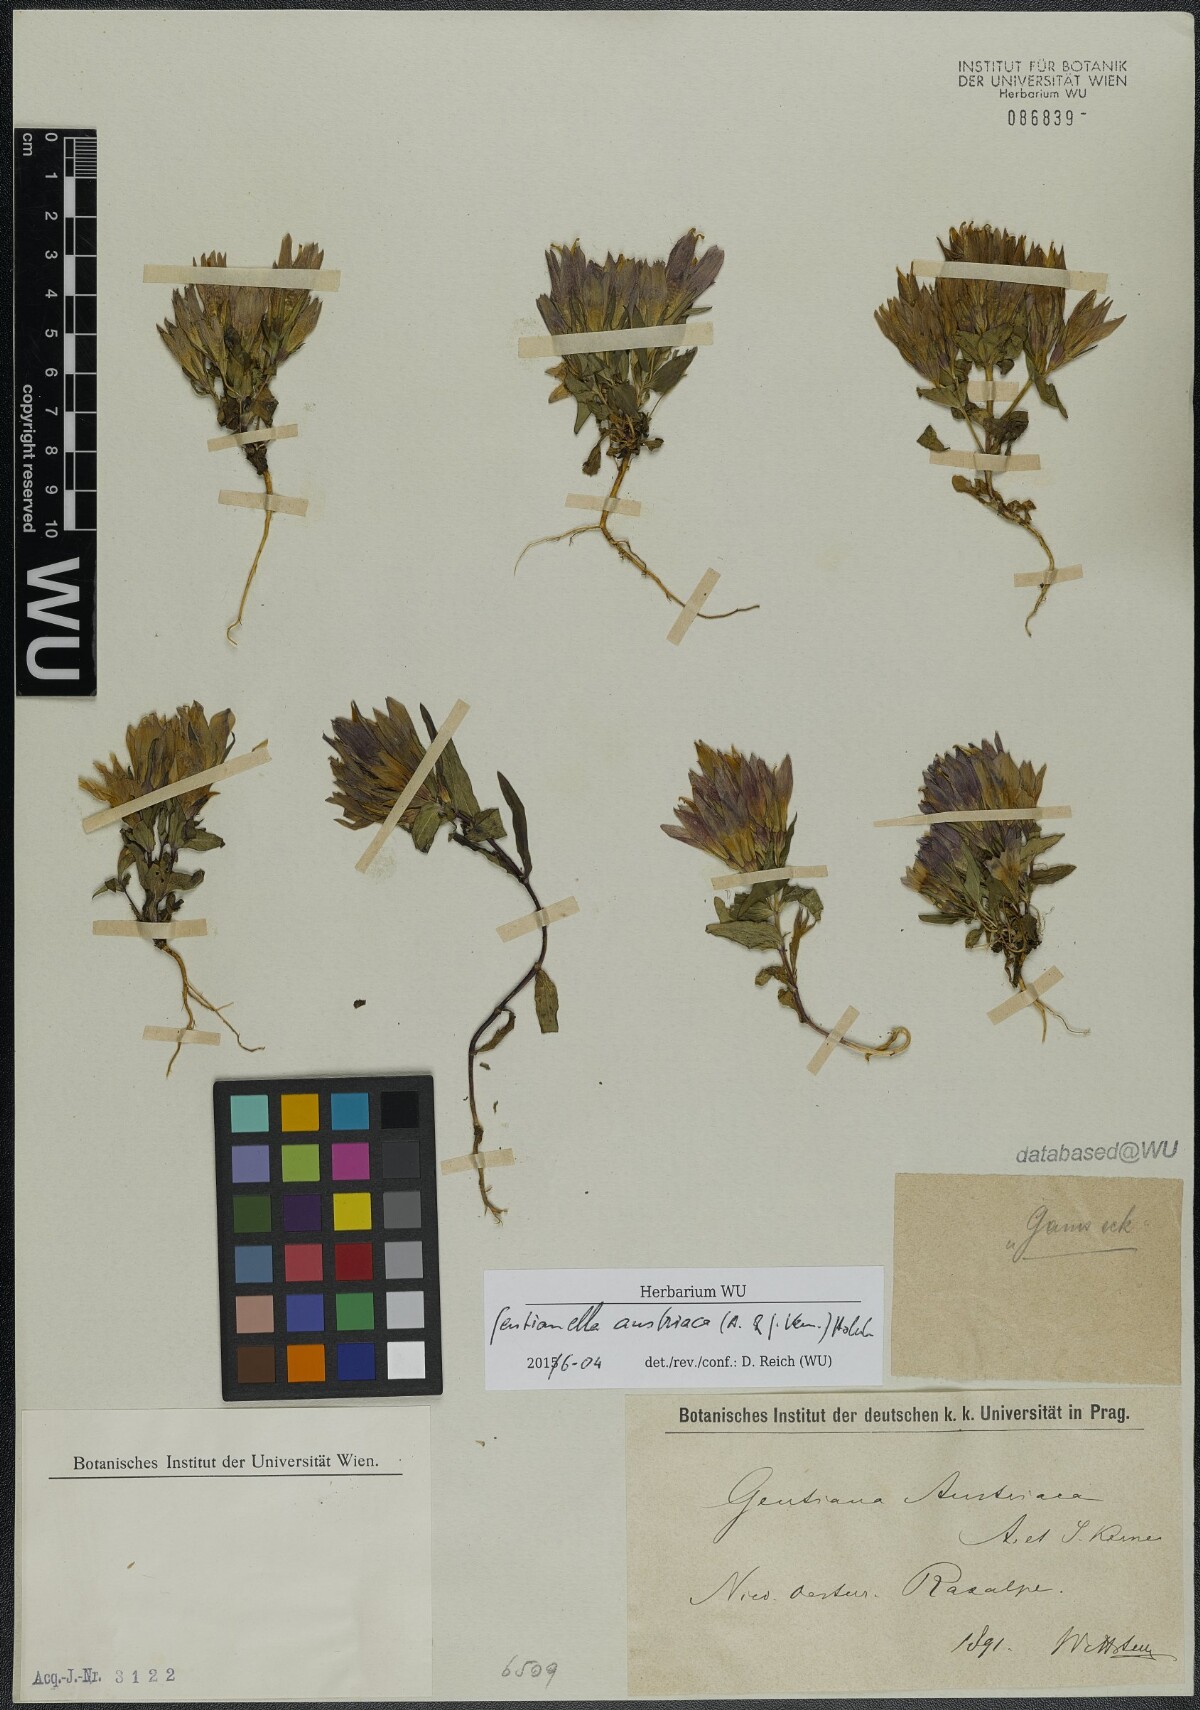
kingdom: Plantae
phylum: Tracheophyta
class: Magnoliopsida
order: Gentianales
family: Gentianaceae
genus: Gentianella
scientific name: Gentianella austriaca
